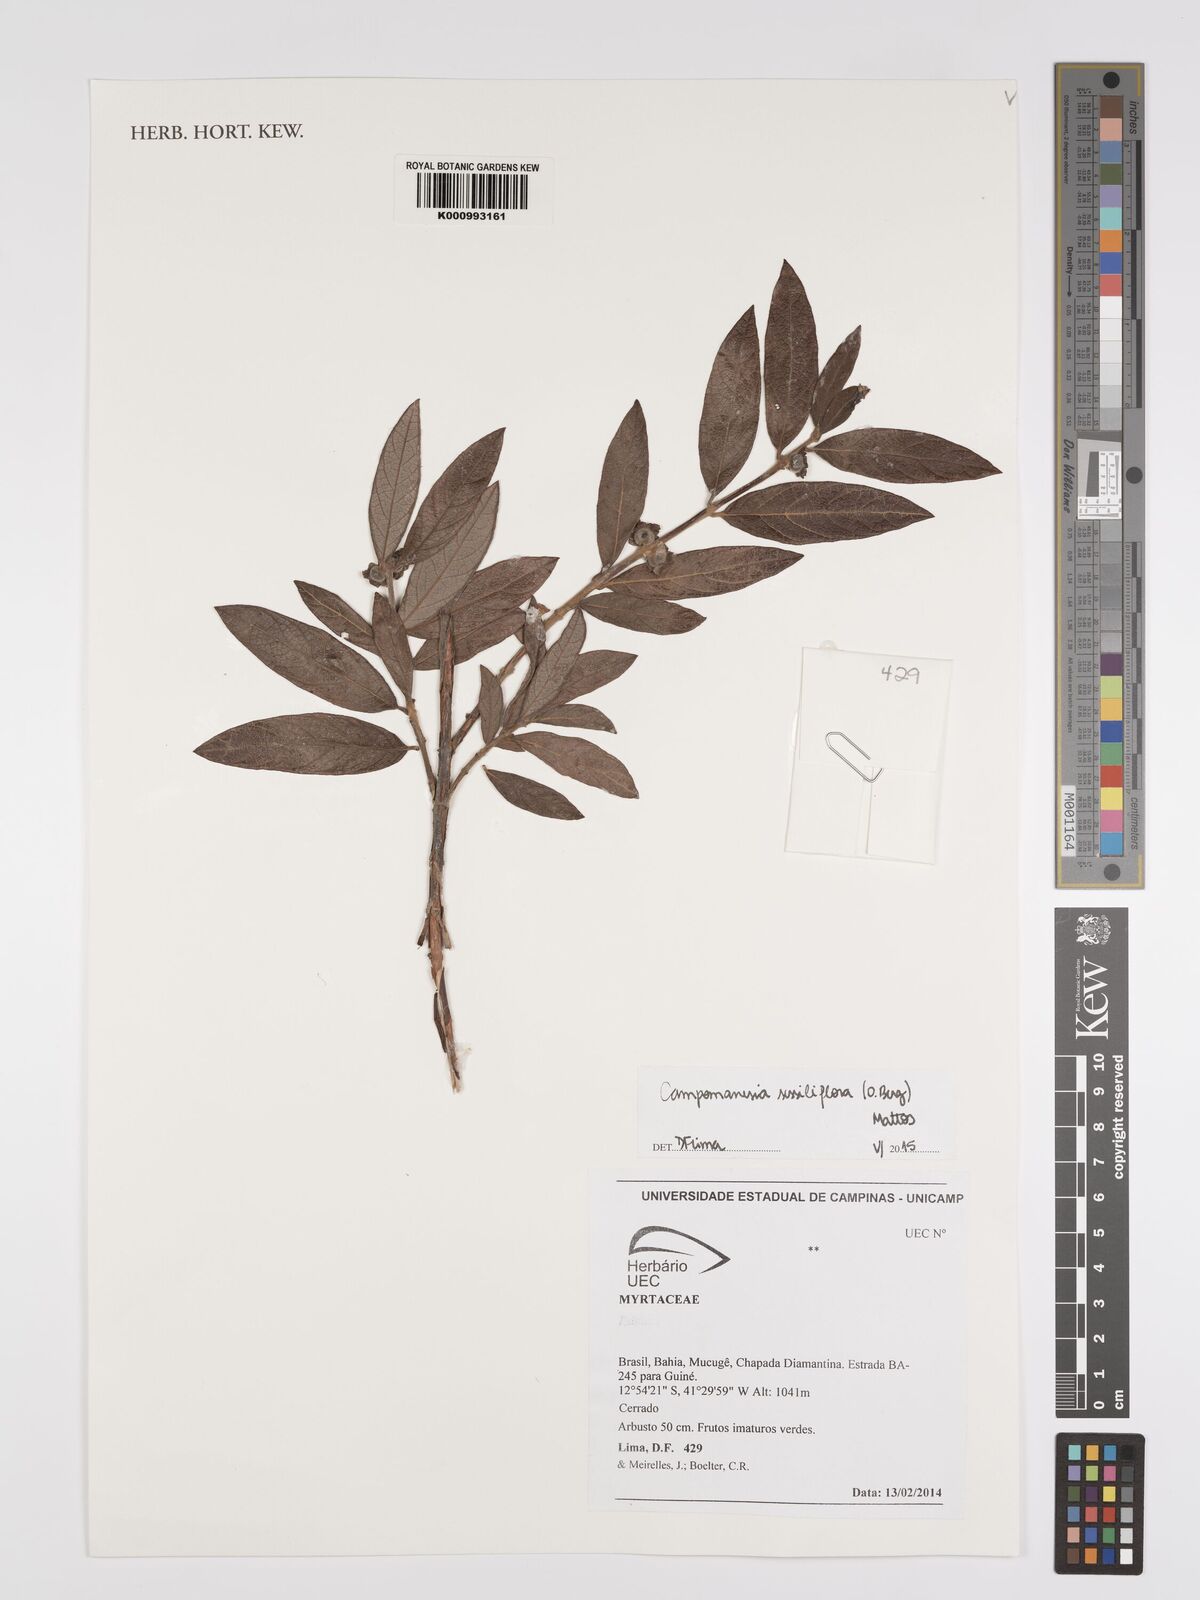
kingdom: Plantae
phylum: Tracheophyta
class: Magnoliopsida
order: Myrtales
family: Myrtaceae
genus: Campomanesia
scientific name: Campomanesia sessiliflora
